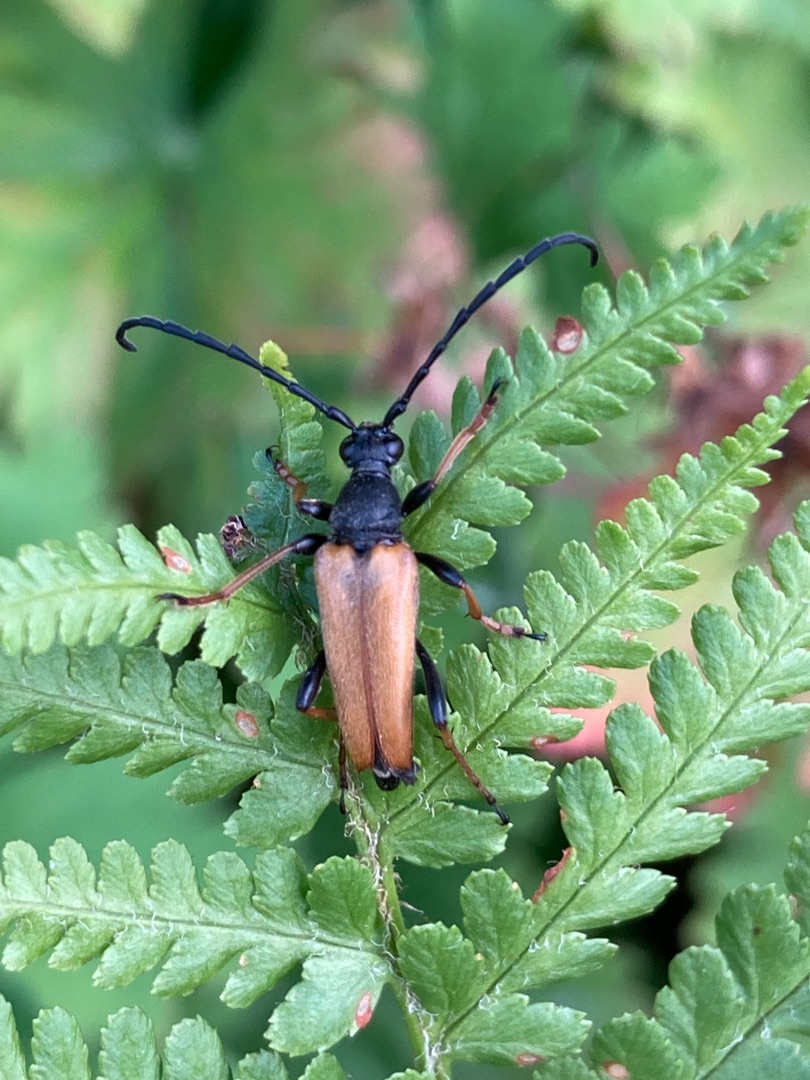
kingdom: Animalia
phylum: Arthropoda
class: Insecta
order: Coleoptera
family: Cerambycidae
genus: Stictoleptura
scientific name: Stictoleptura rubra
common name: Rød blomsterbuk
